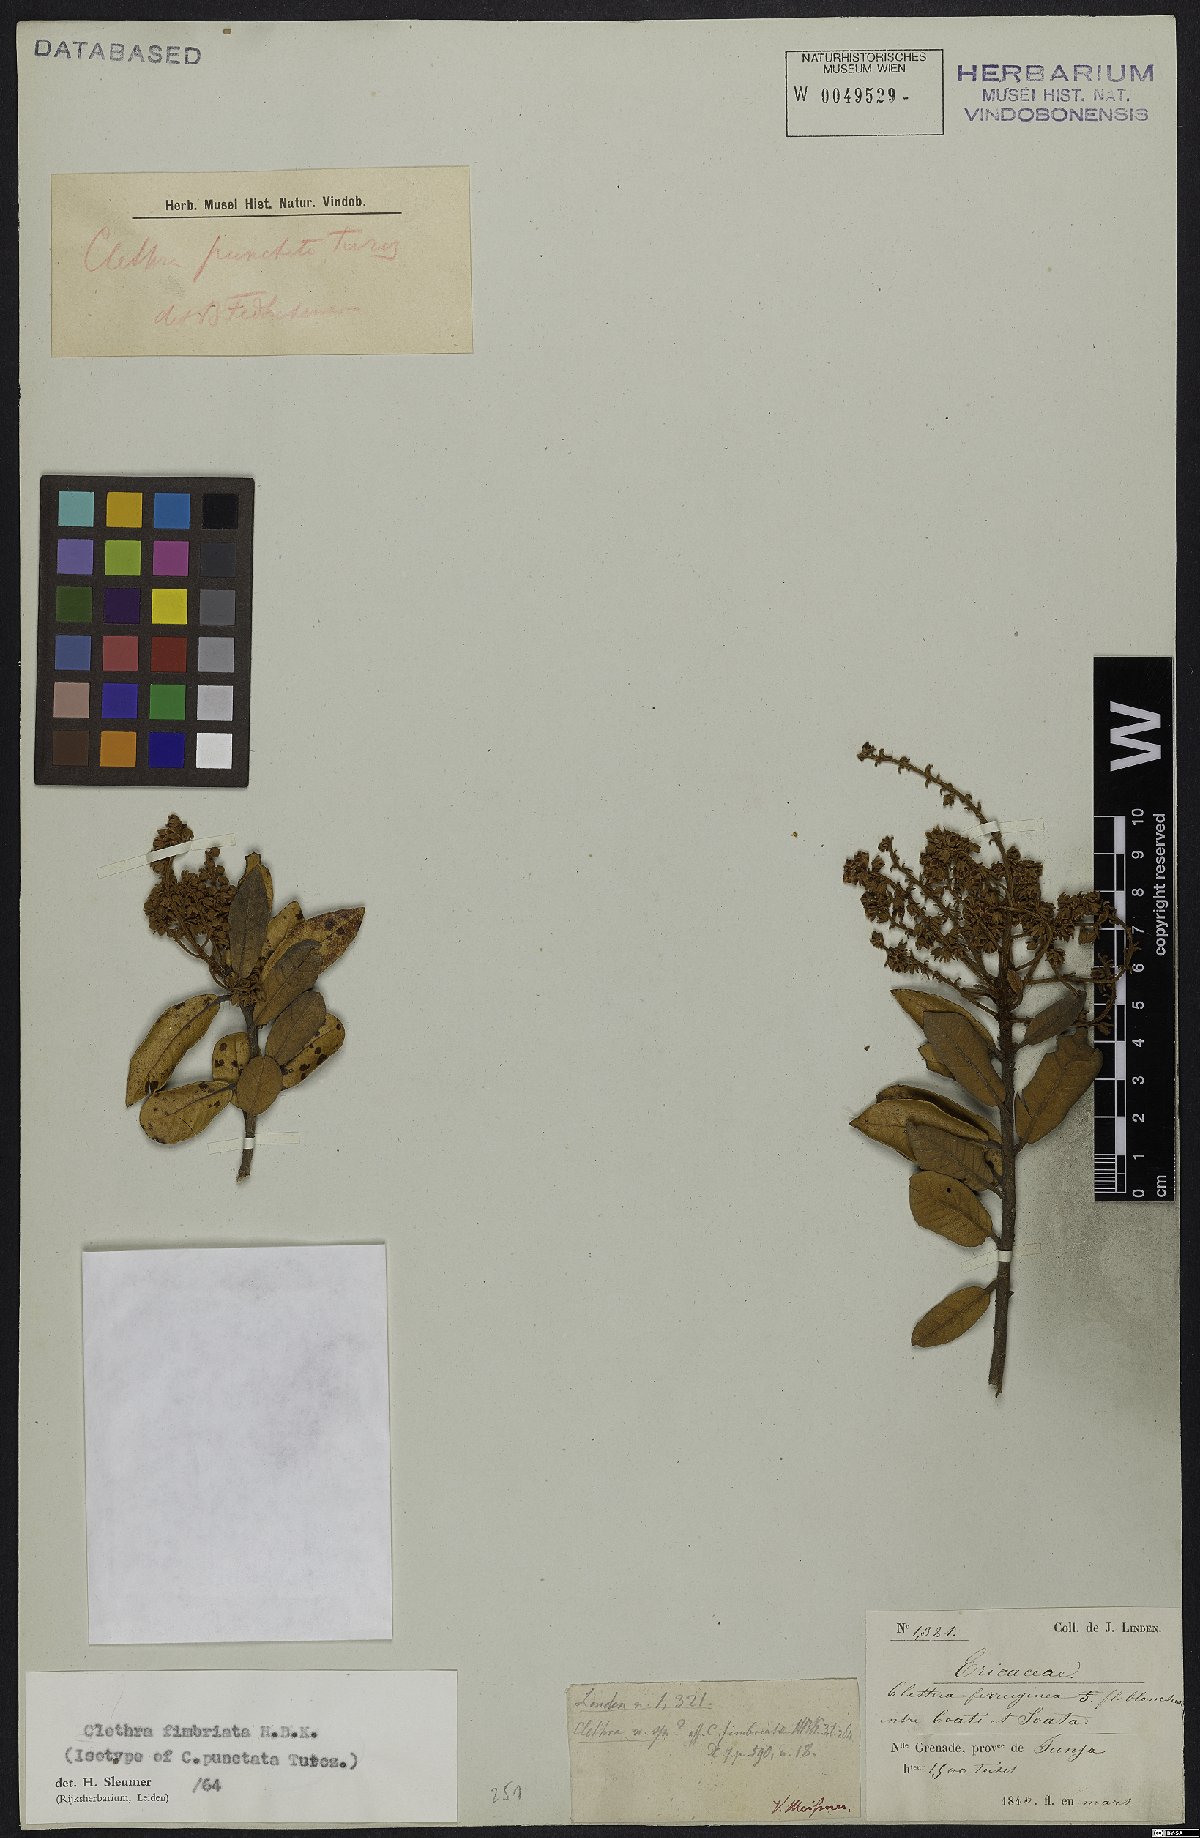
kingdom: Plantae
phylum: Tracheophyta
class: Magnoliopsida
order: Ericales
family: Clethraceae
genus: Clethra
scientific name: Clethra fimbriata
